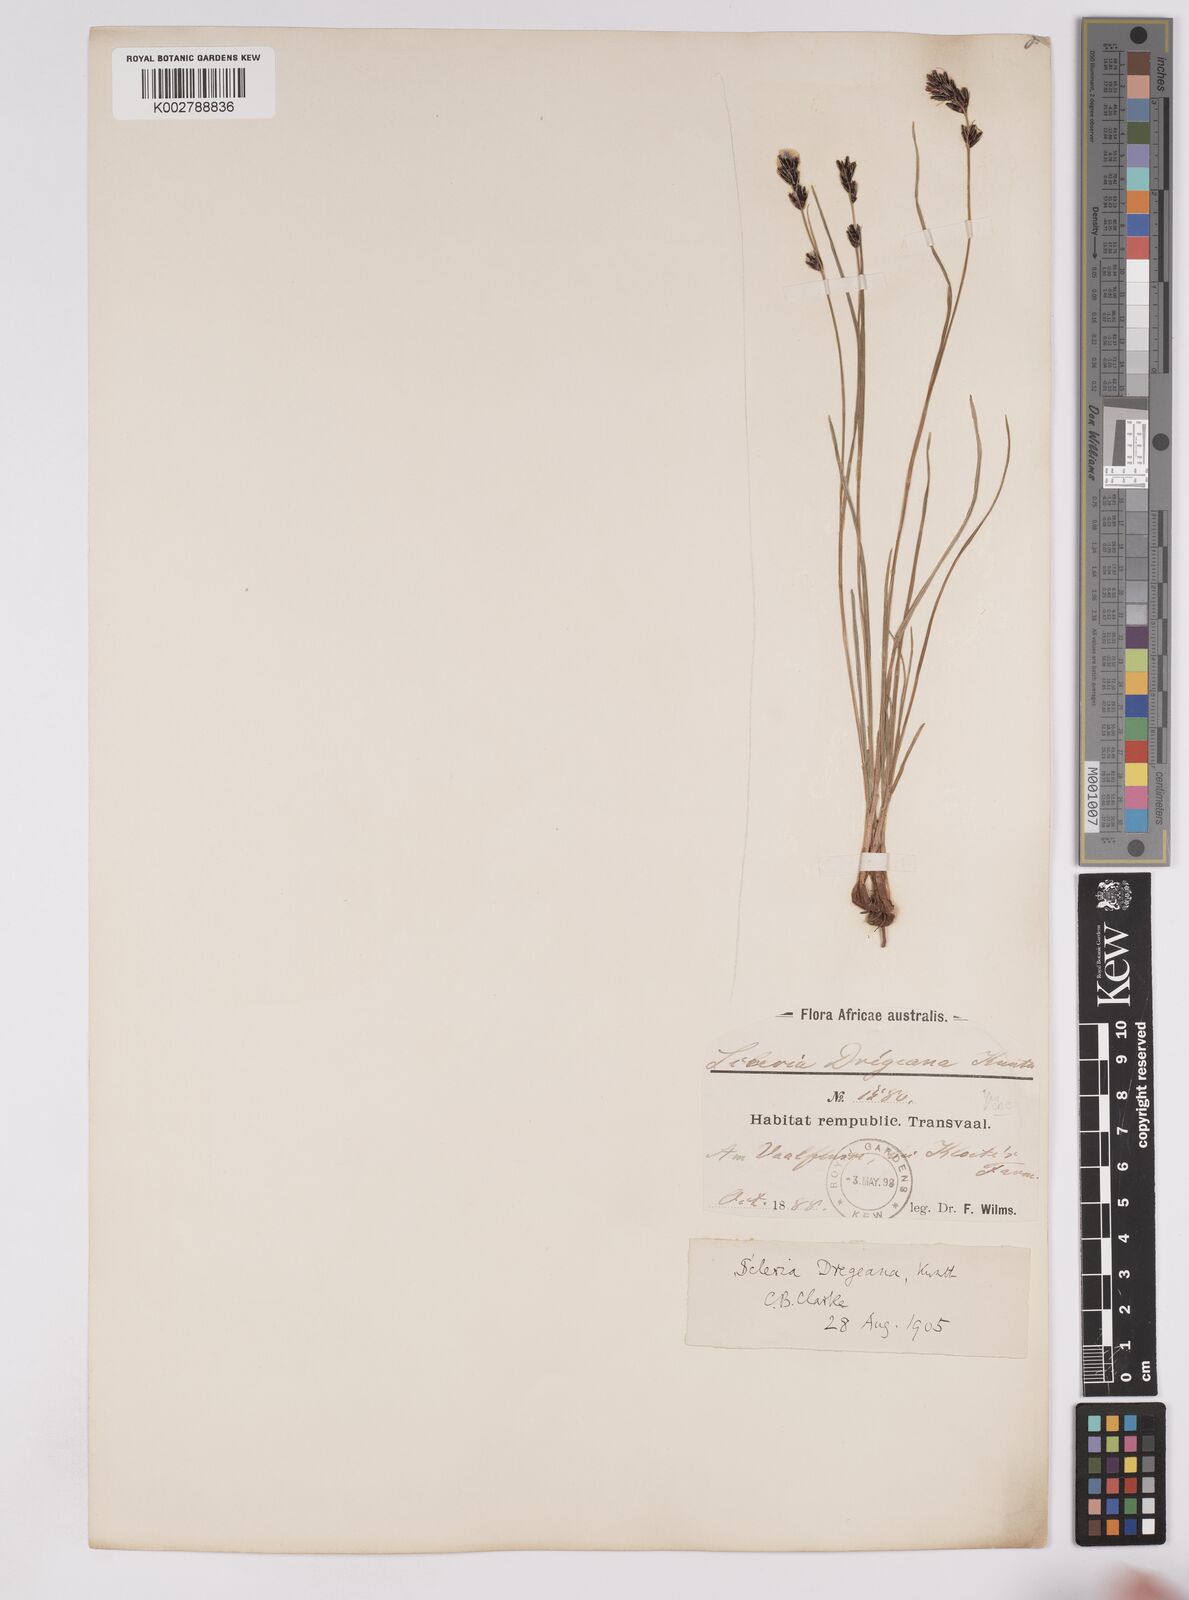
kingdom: Plantae
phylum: Tracheophyta
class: Liliopsida
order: Poales
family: Cyperaceae
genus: Scleria
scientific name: Scleria dregeana
